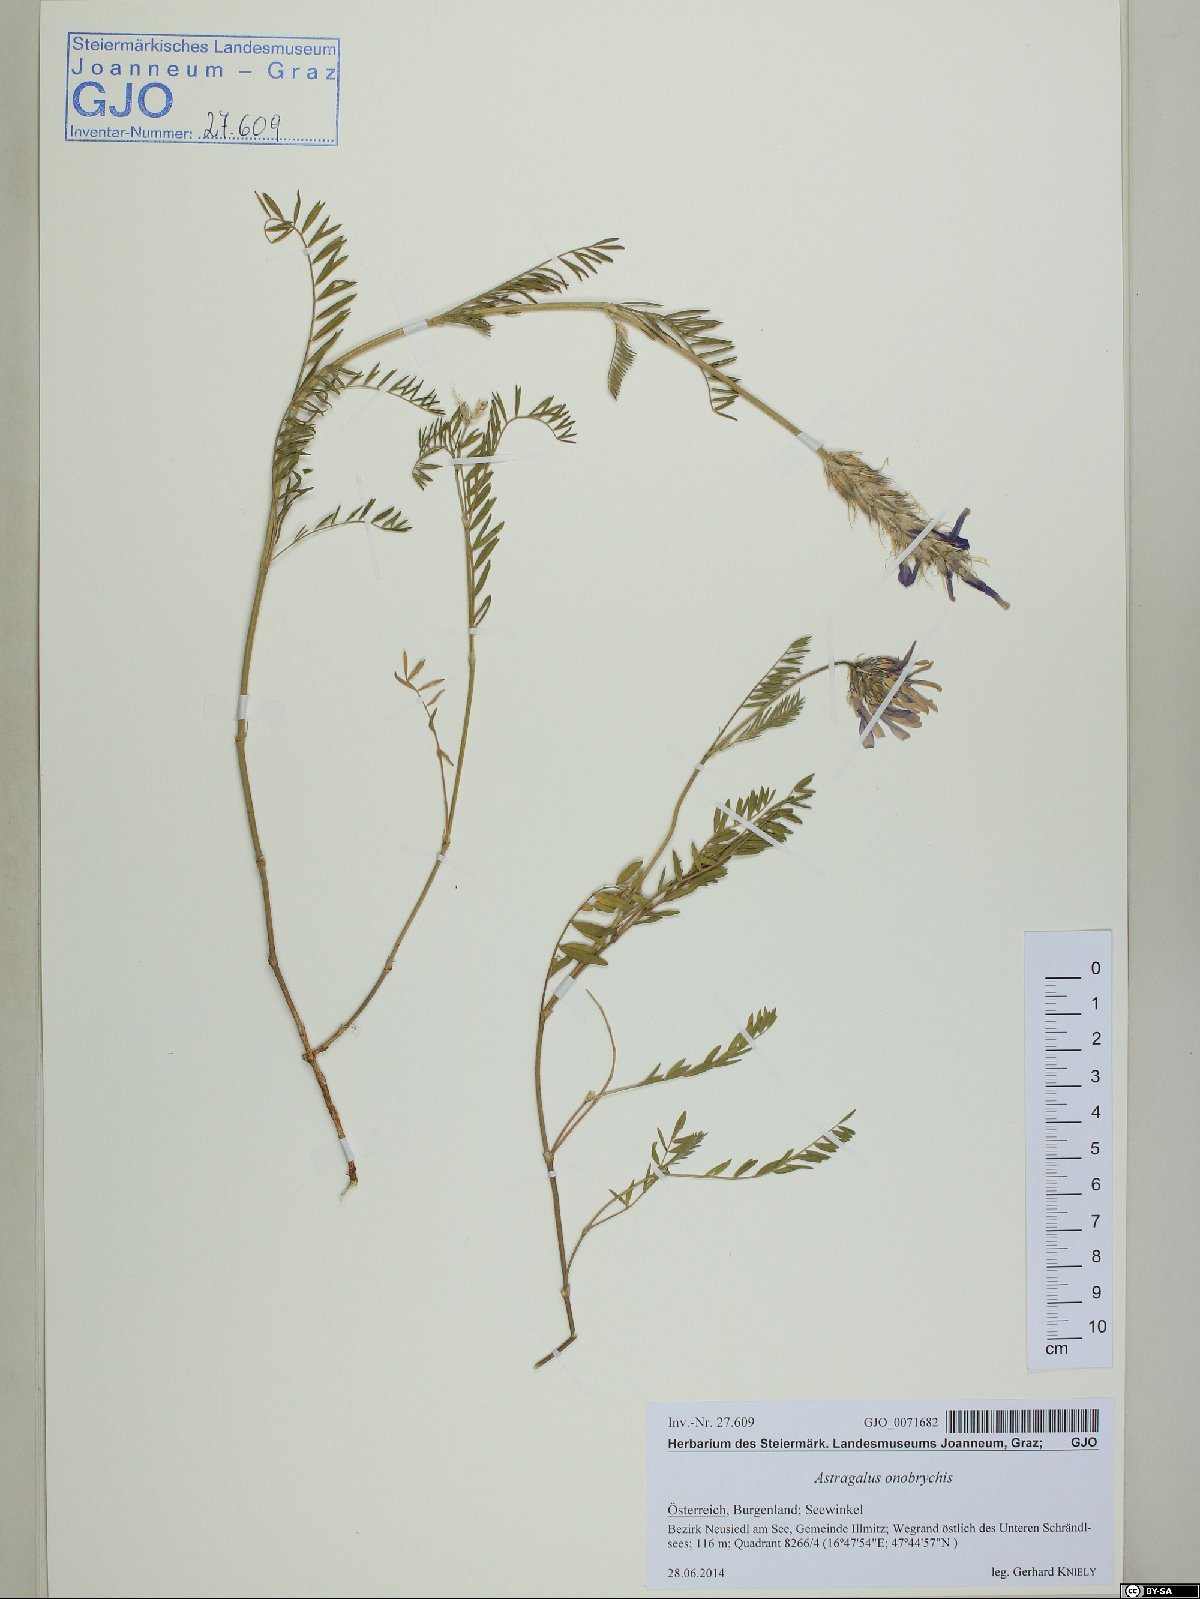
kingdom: Plantae
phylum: Tracheophyta
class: Magnoliopsida
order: Fabales
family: Fabaceae
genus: Astragalus
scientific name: Astragalus onobrychis
